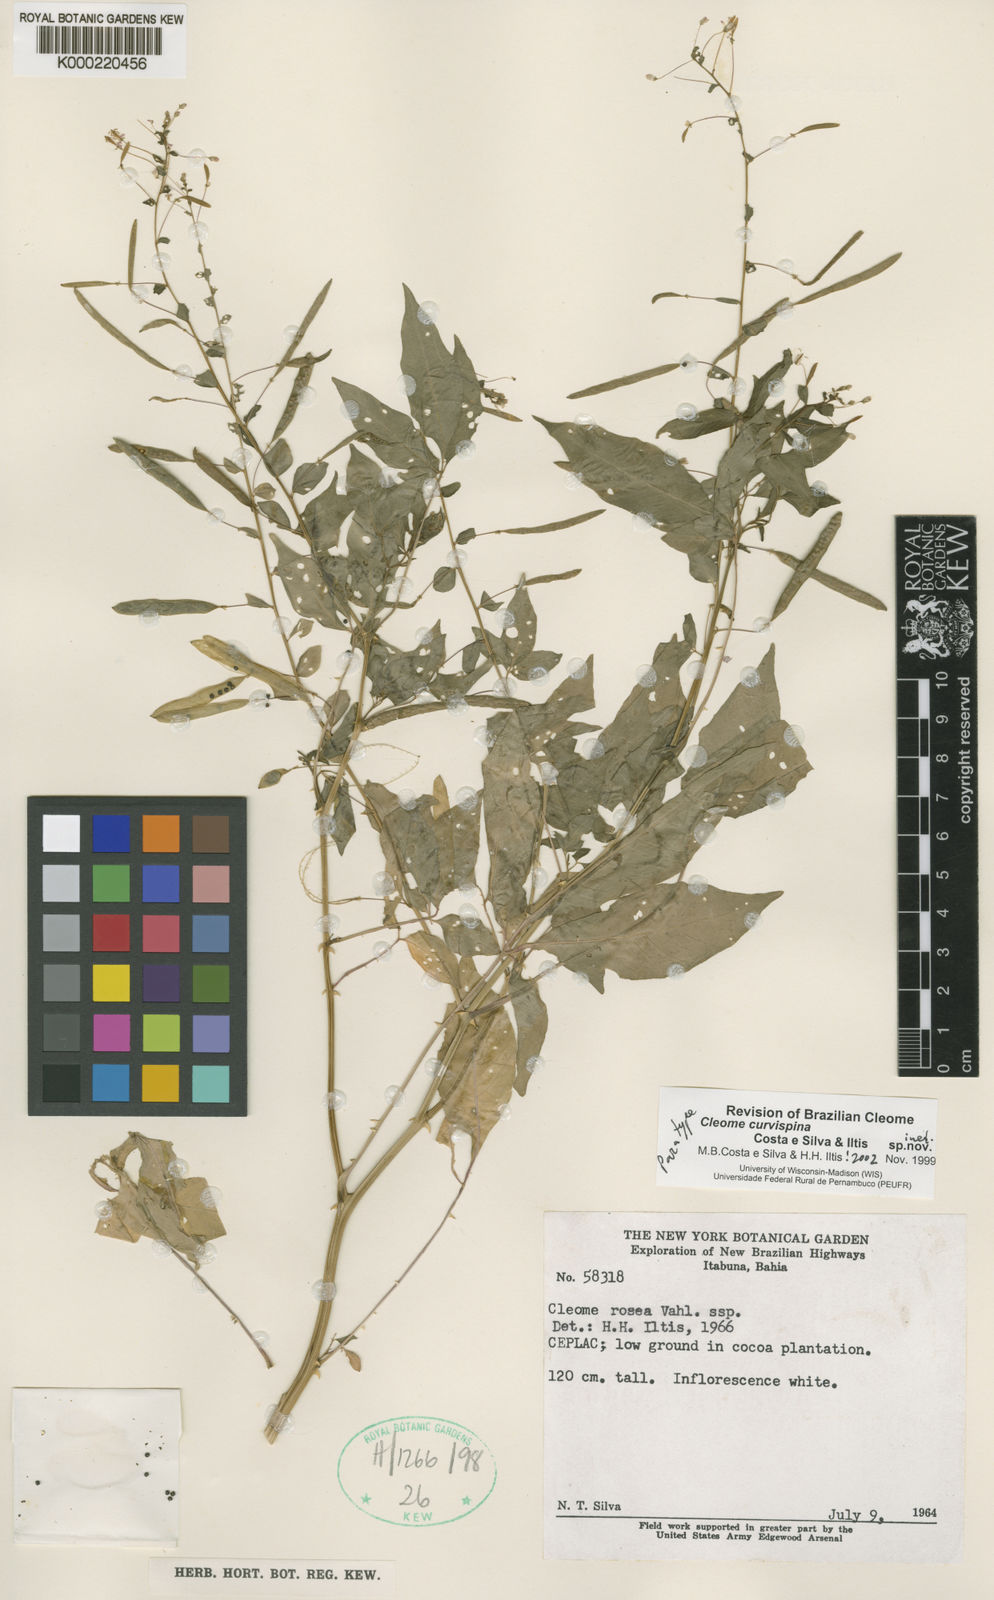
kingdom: Plantae
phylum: Tracheophyta
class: Magnoliopsida
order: Brassicales
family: Cleomaceae
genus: Cleome
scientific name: Cleome
